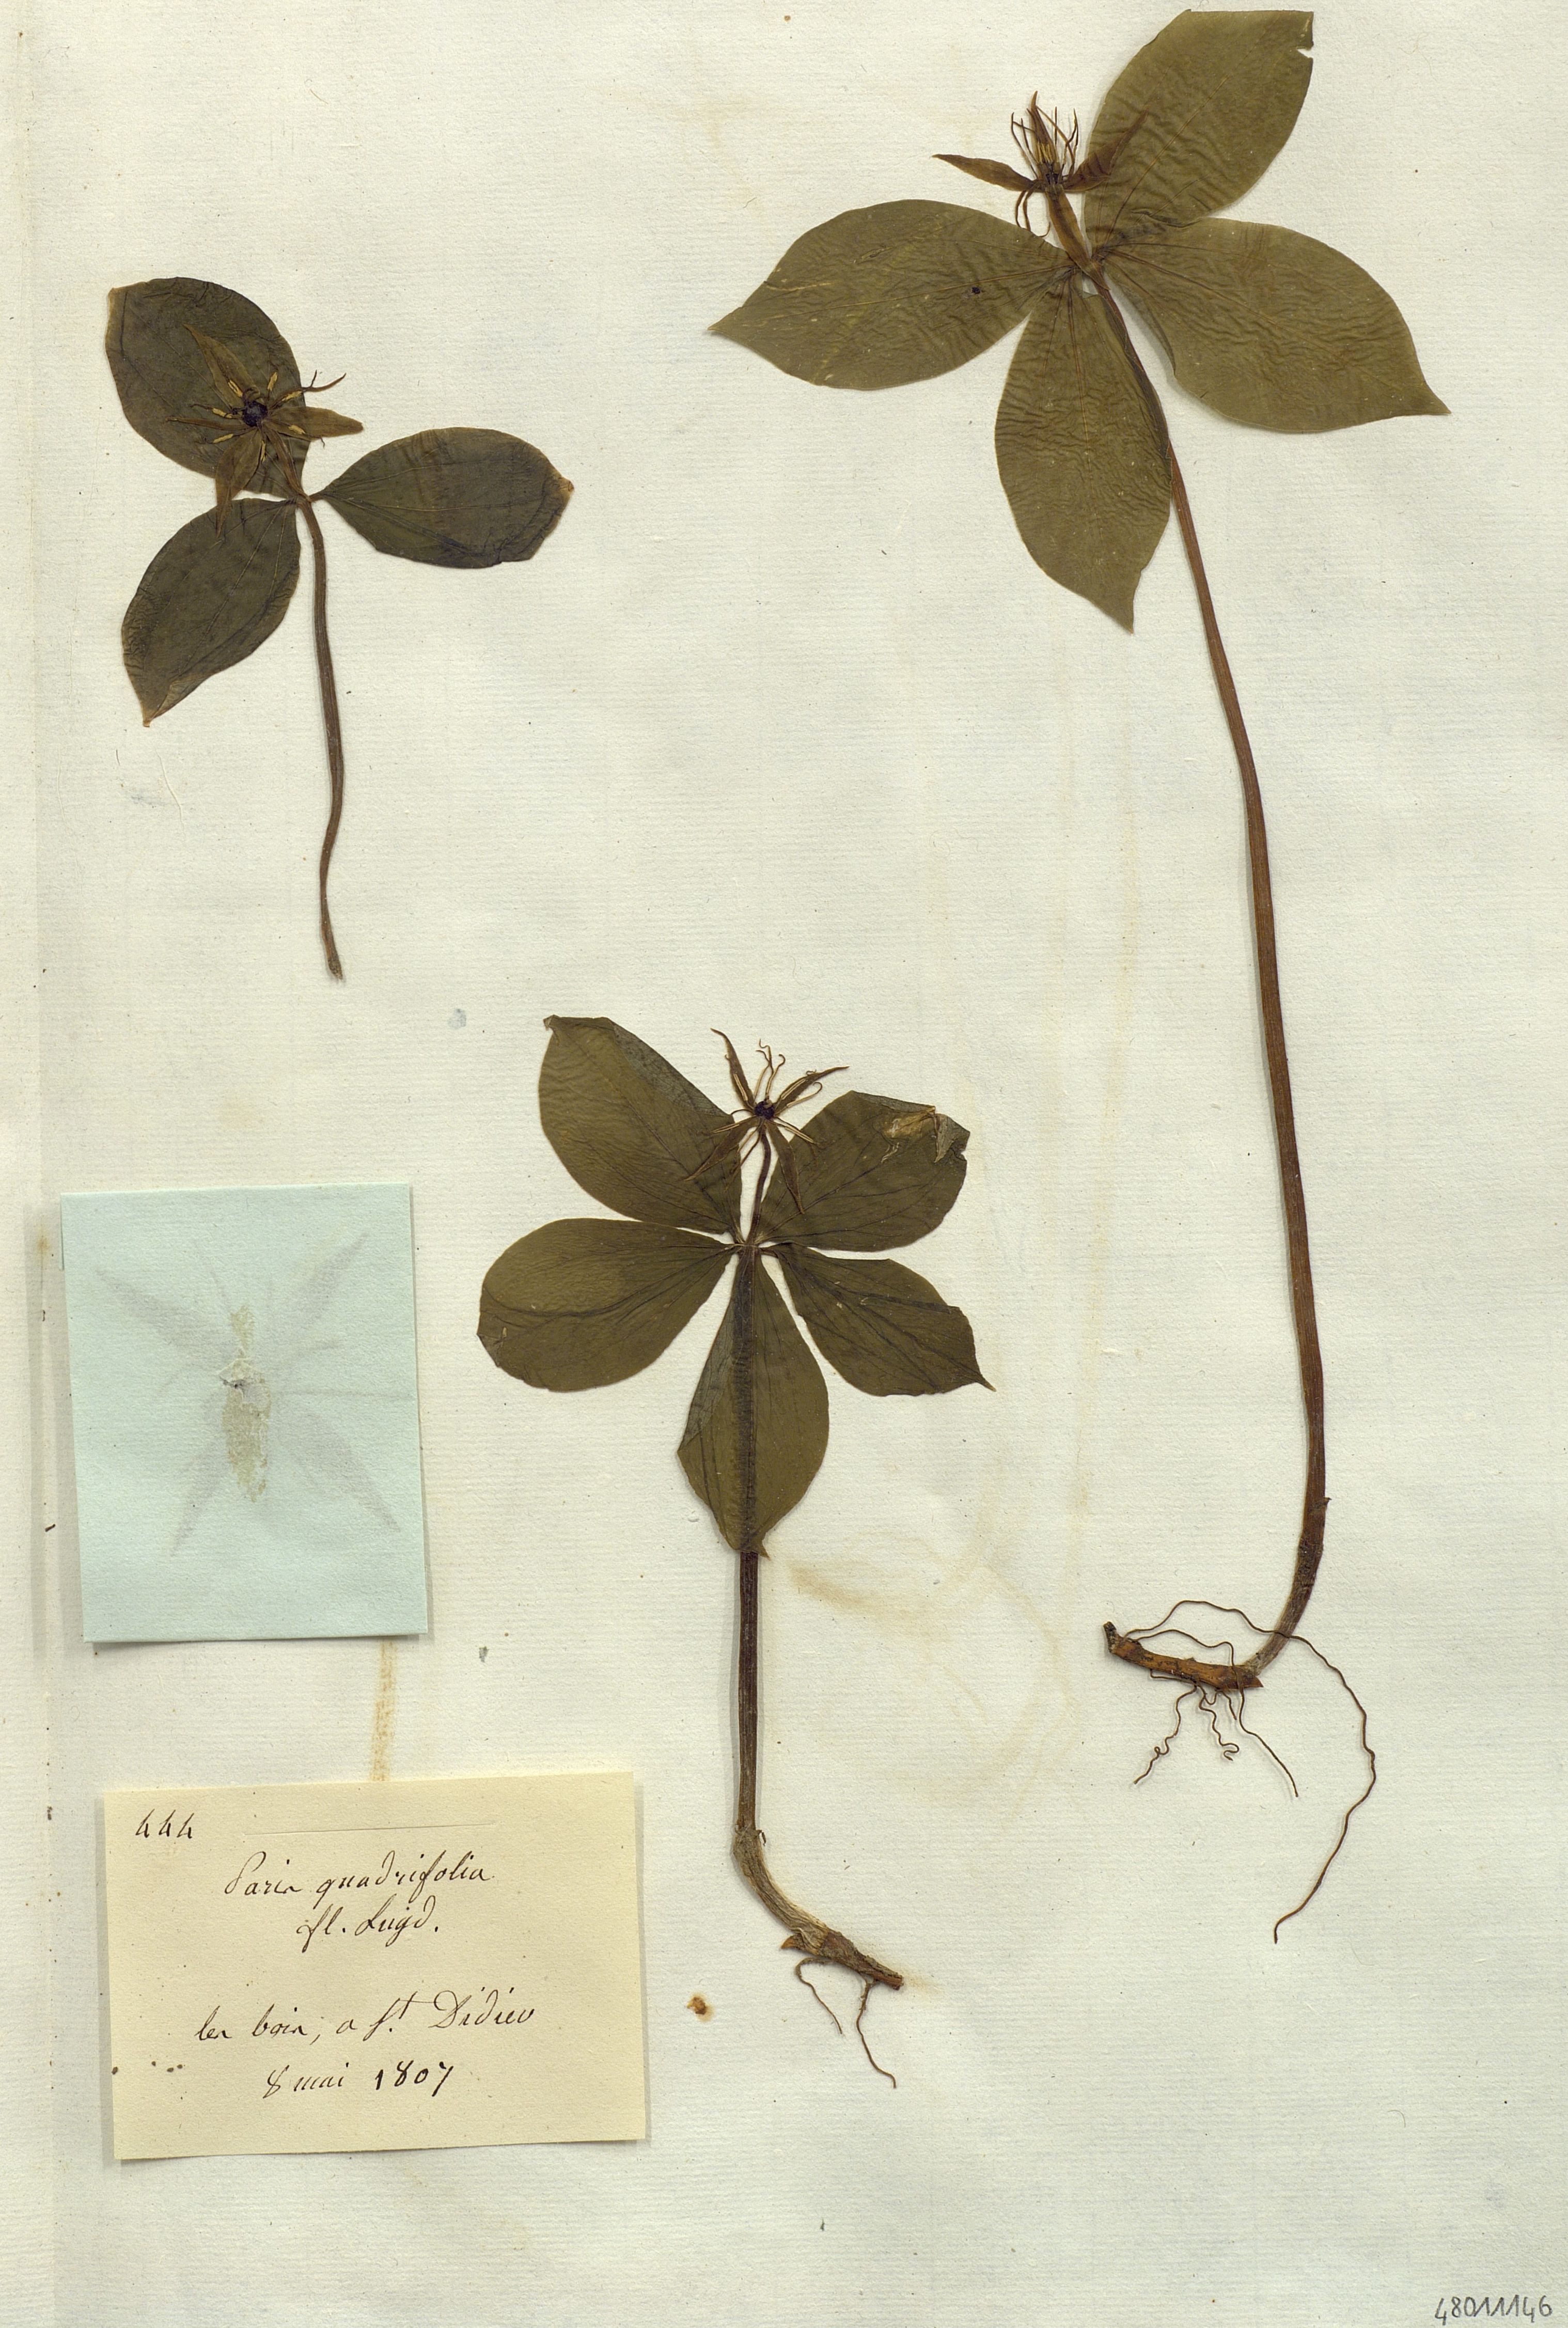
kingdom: Plantae
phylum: Tracheophyta
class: Liliopsida
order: Liliales
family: Melanthiaceae
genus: Paris
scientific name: Paris quadrifolia
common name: Herb-paris
